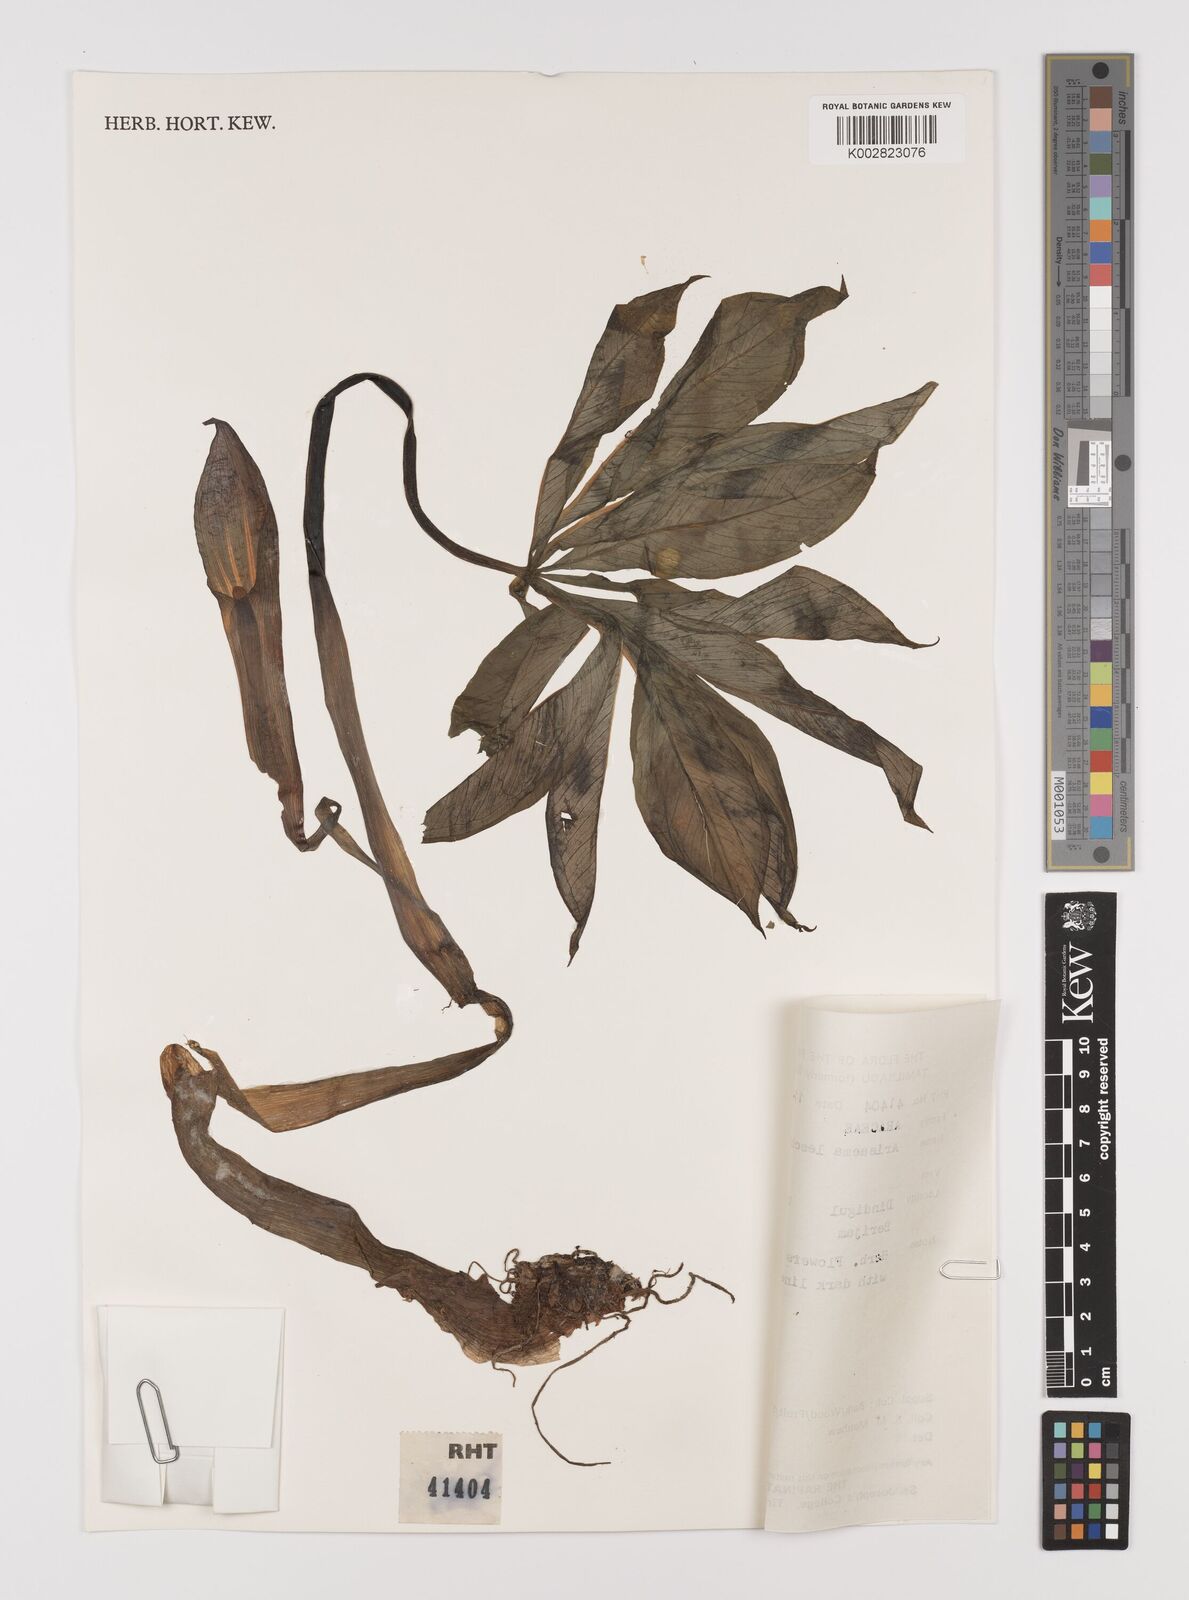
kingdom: Plantae
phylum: Tracheophyta
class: Liliopsida
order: Alismatales
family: Araceae
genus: Arisaema
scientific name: Arisaema leschenaultii
